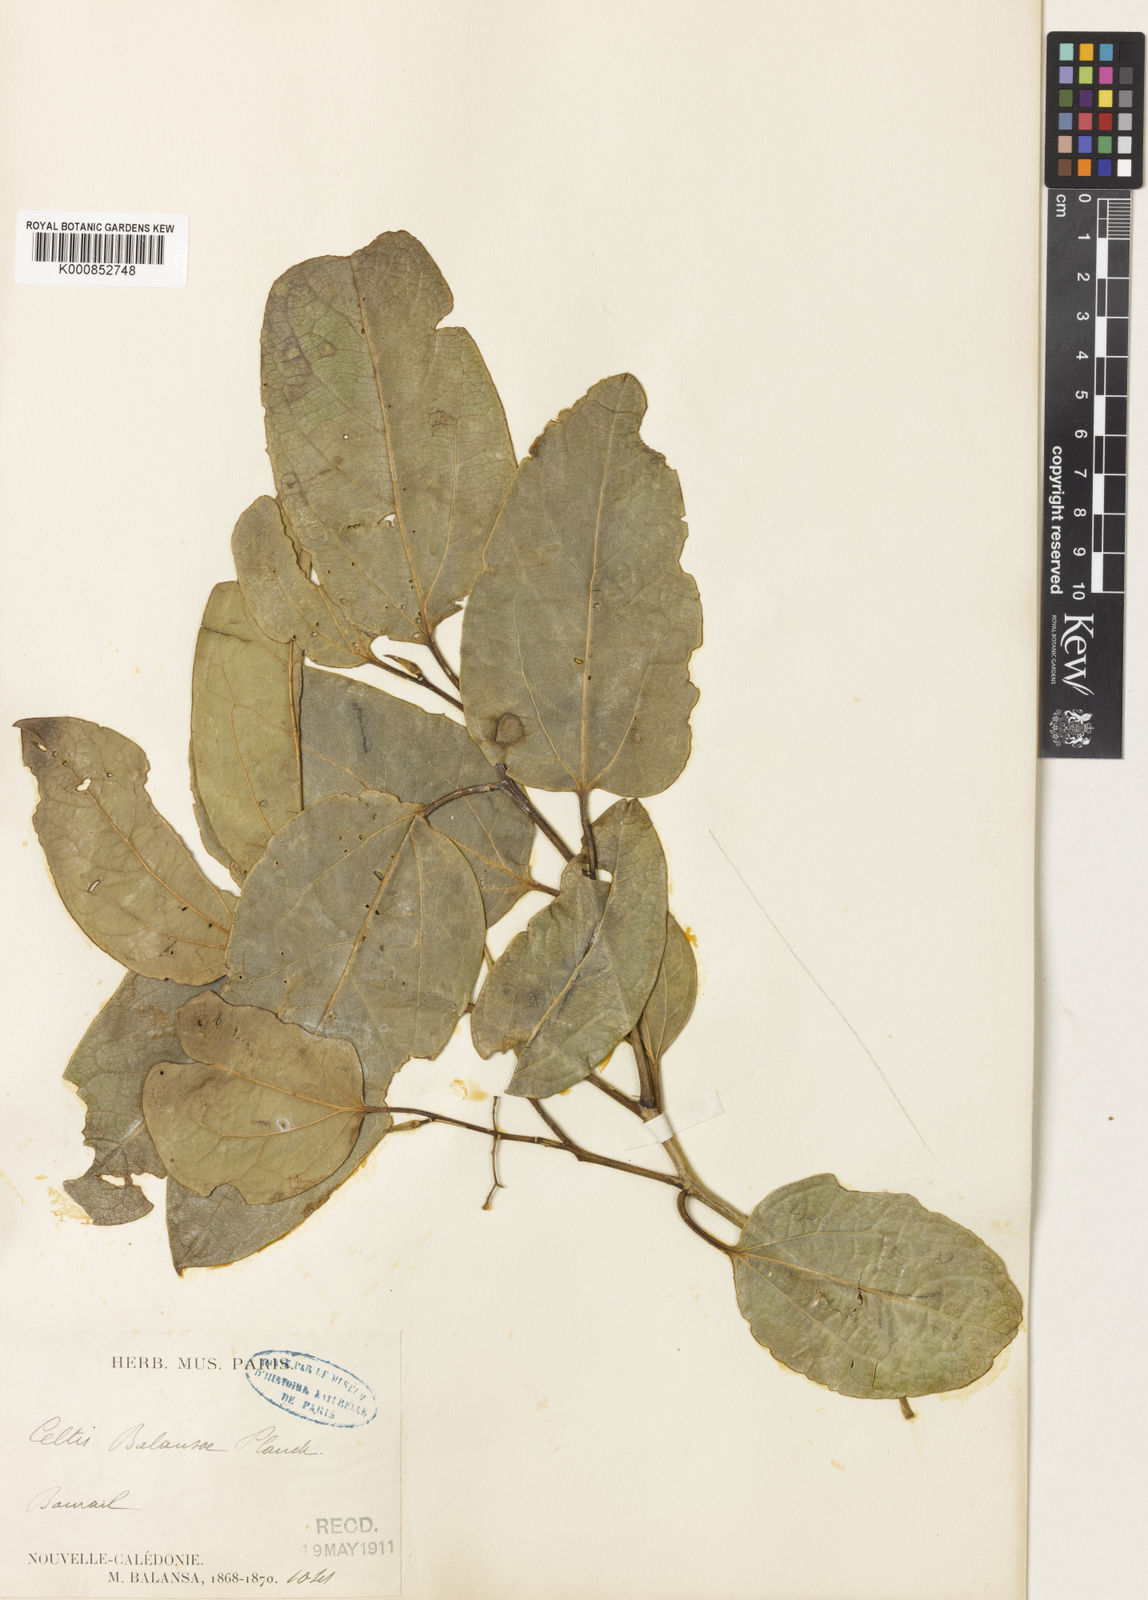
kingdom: Plantae
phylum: Tracheophyta
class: Magnoliopsida
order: Rosales
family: Cannabaceae
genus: Celtis
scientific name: Celtis balansae
